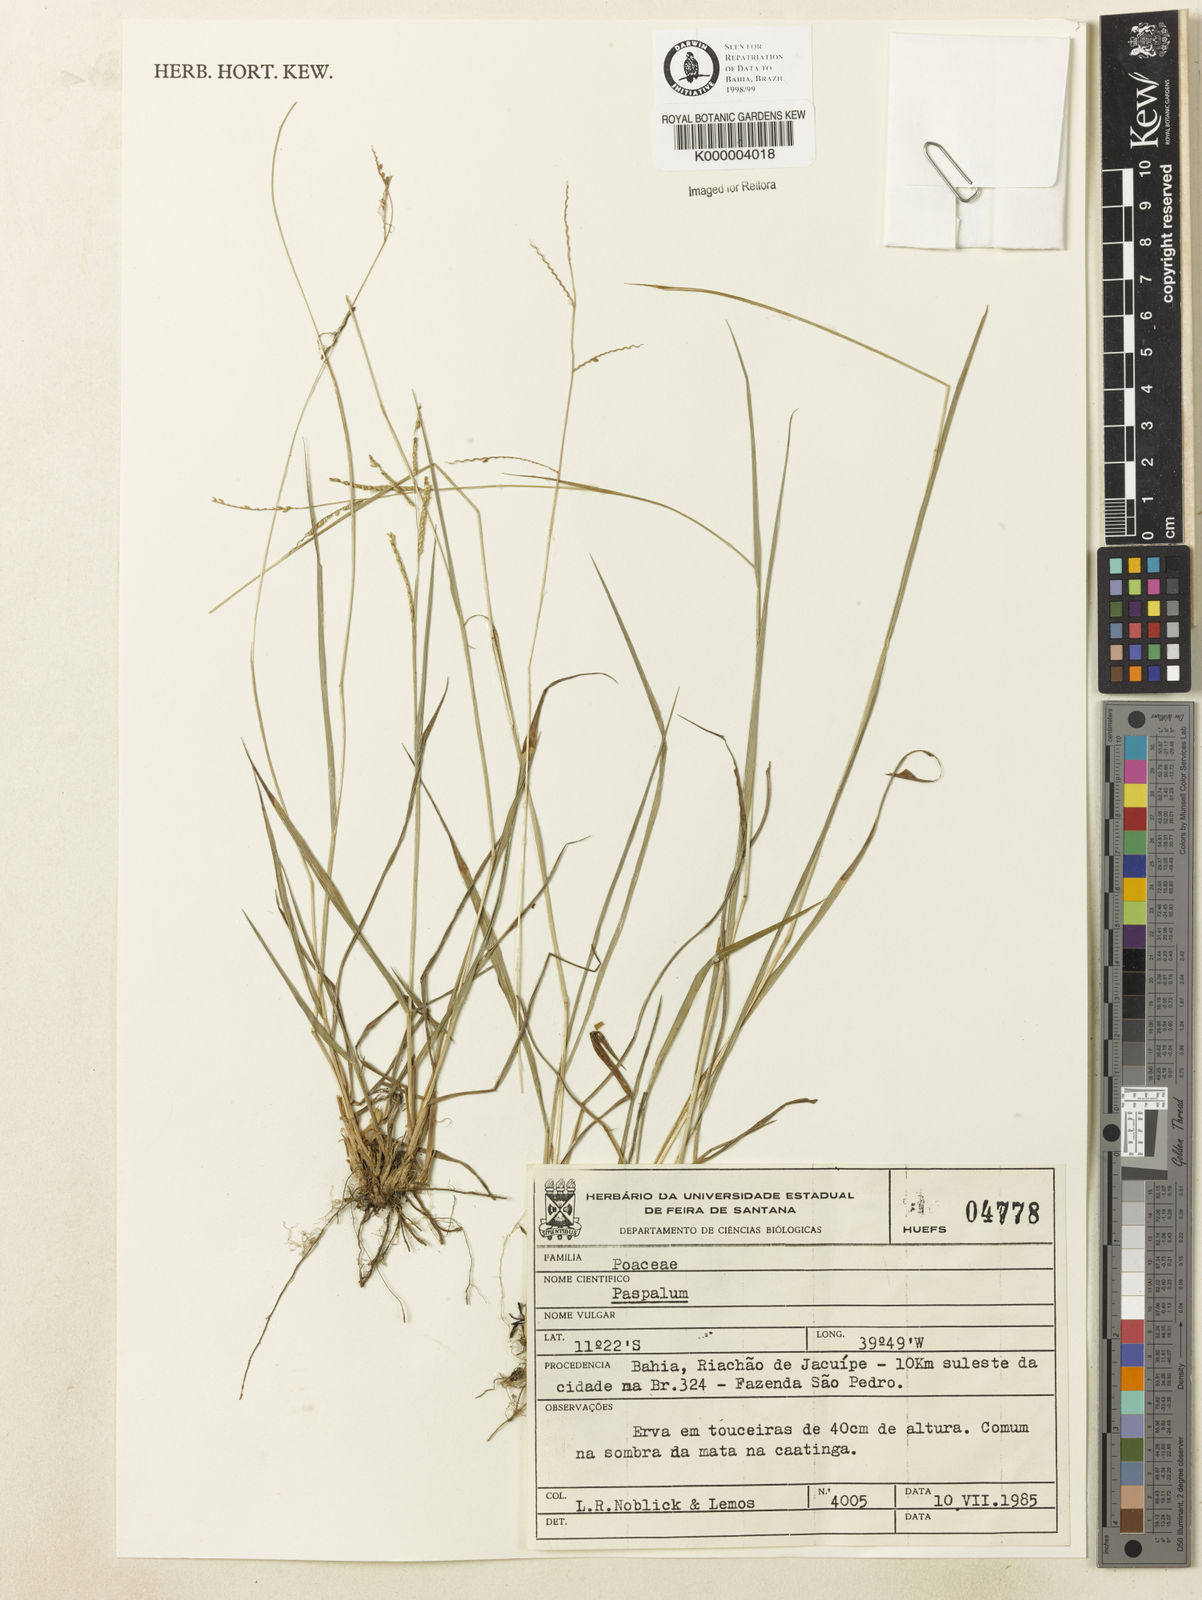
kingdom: Plantae
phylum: Tracheophyta
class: Liliopsida
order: Poales
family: Poaceae
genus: Paspalum
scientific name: Paspalum
